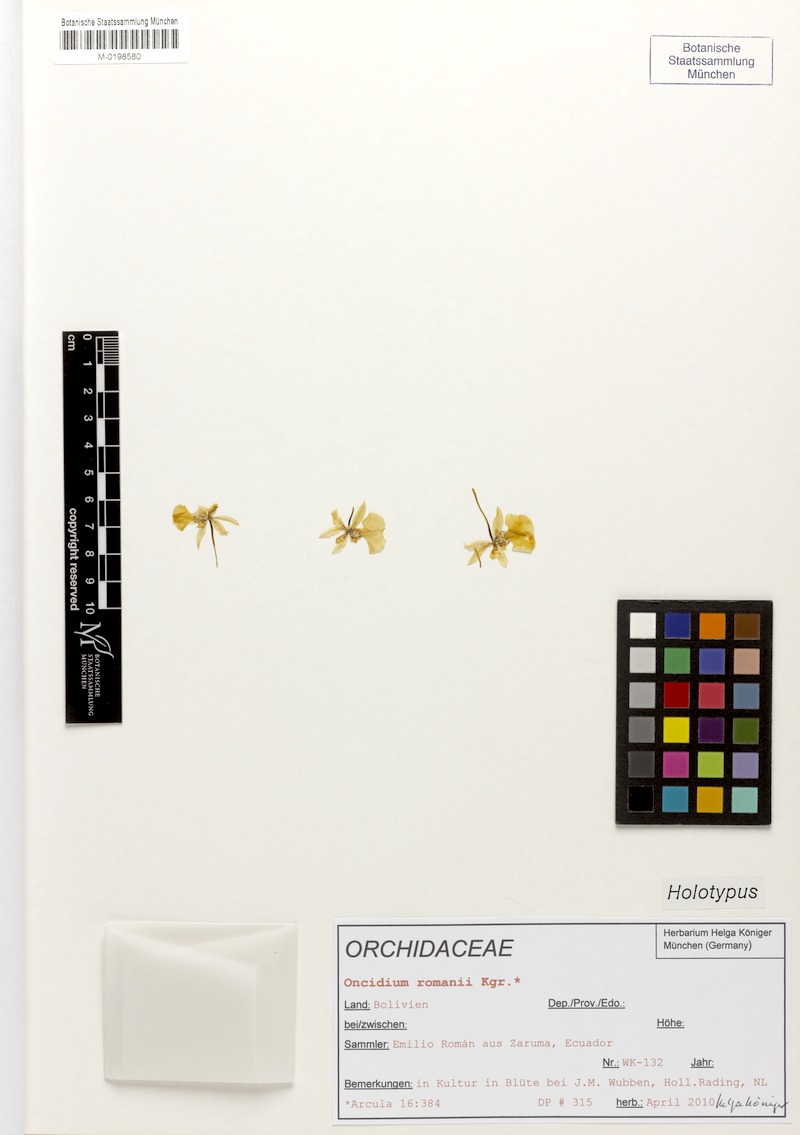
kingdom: Plantae
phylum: Tracheophyta
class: Liliopsida
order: Asparagales
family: Orchidaceae
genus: Oncidium
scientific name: Oncidium romanii
